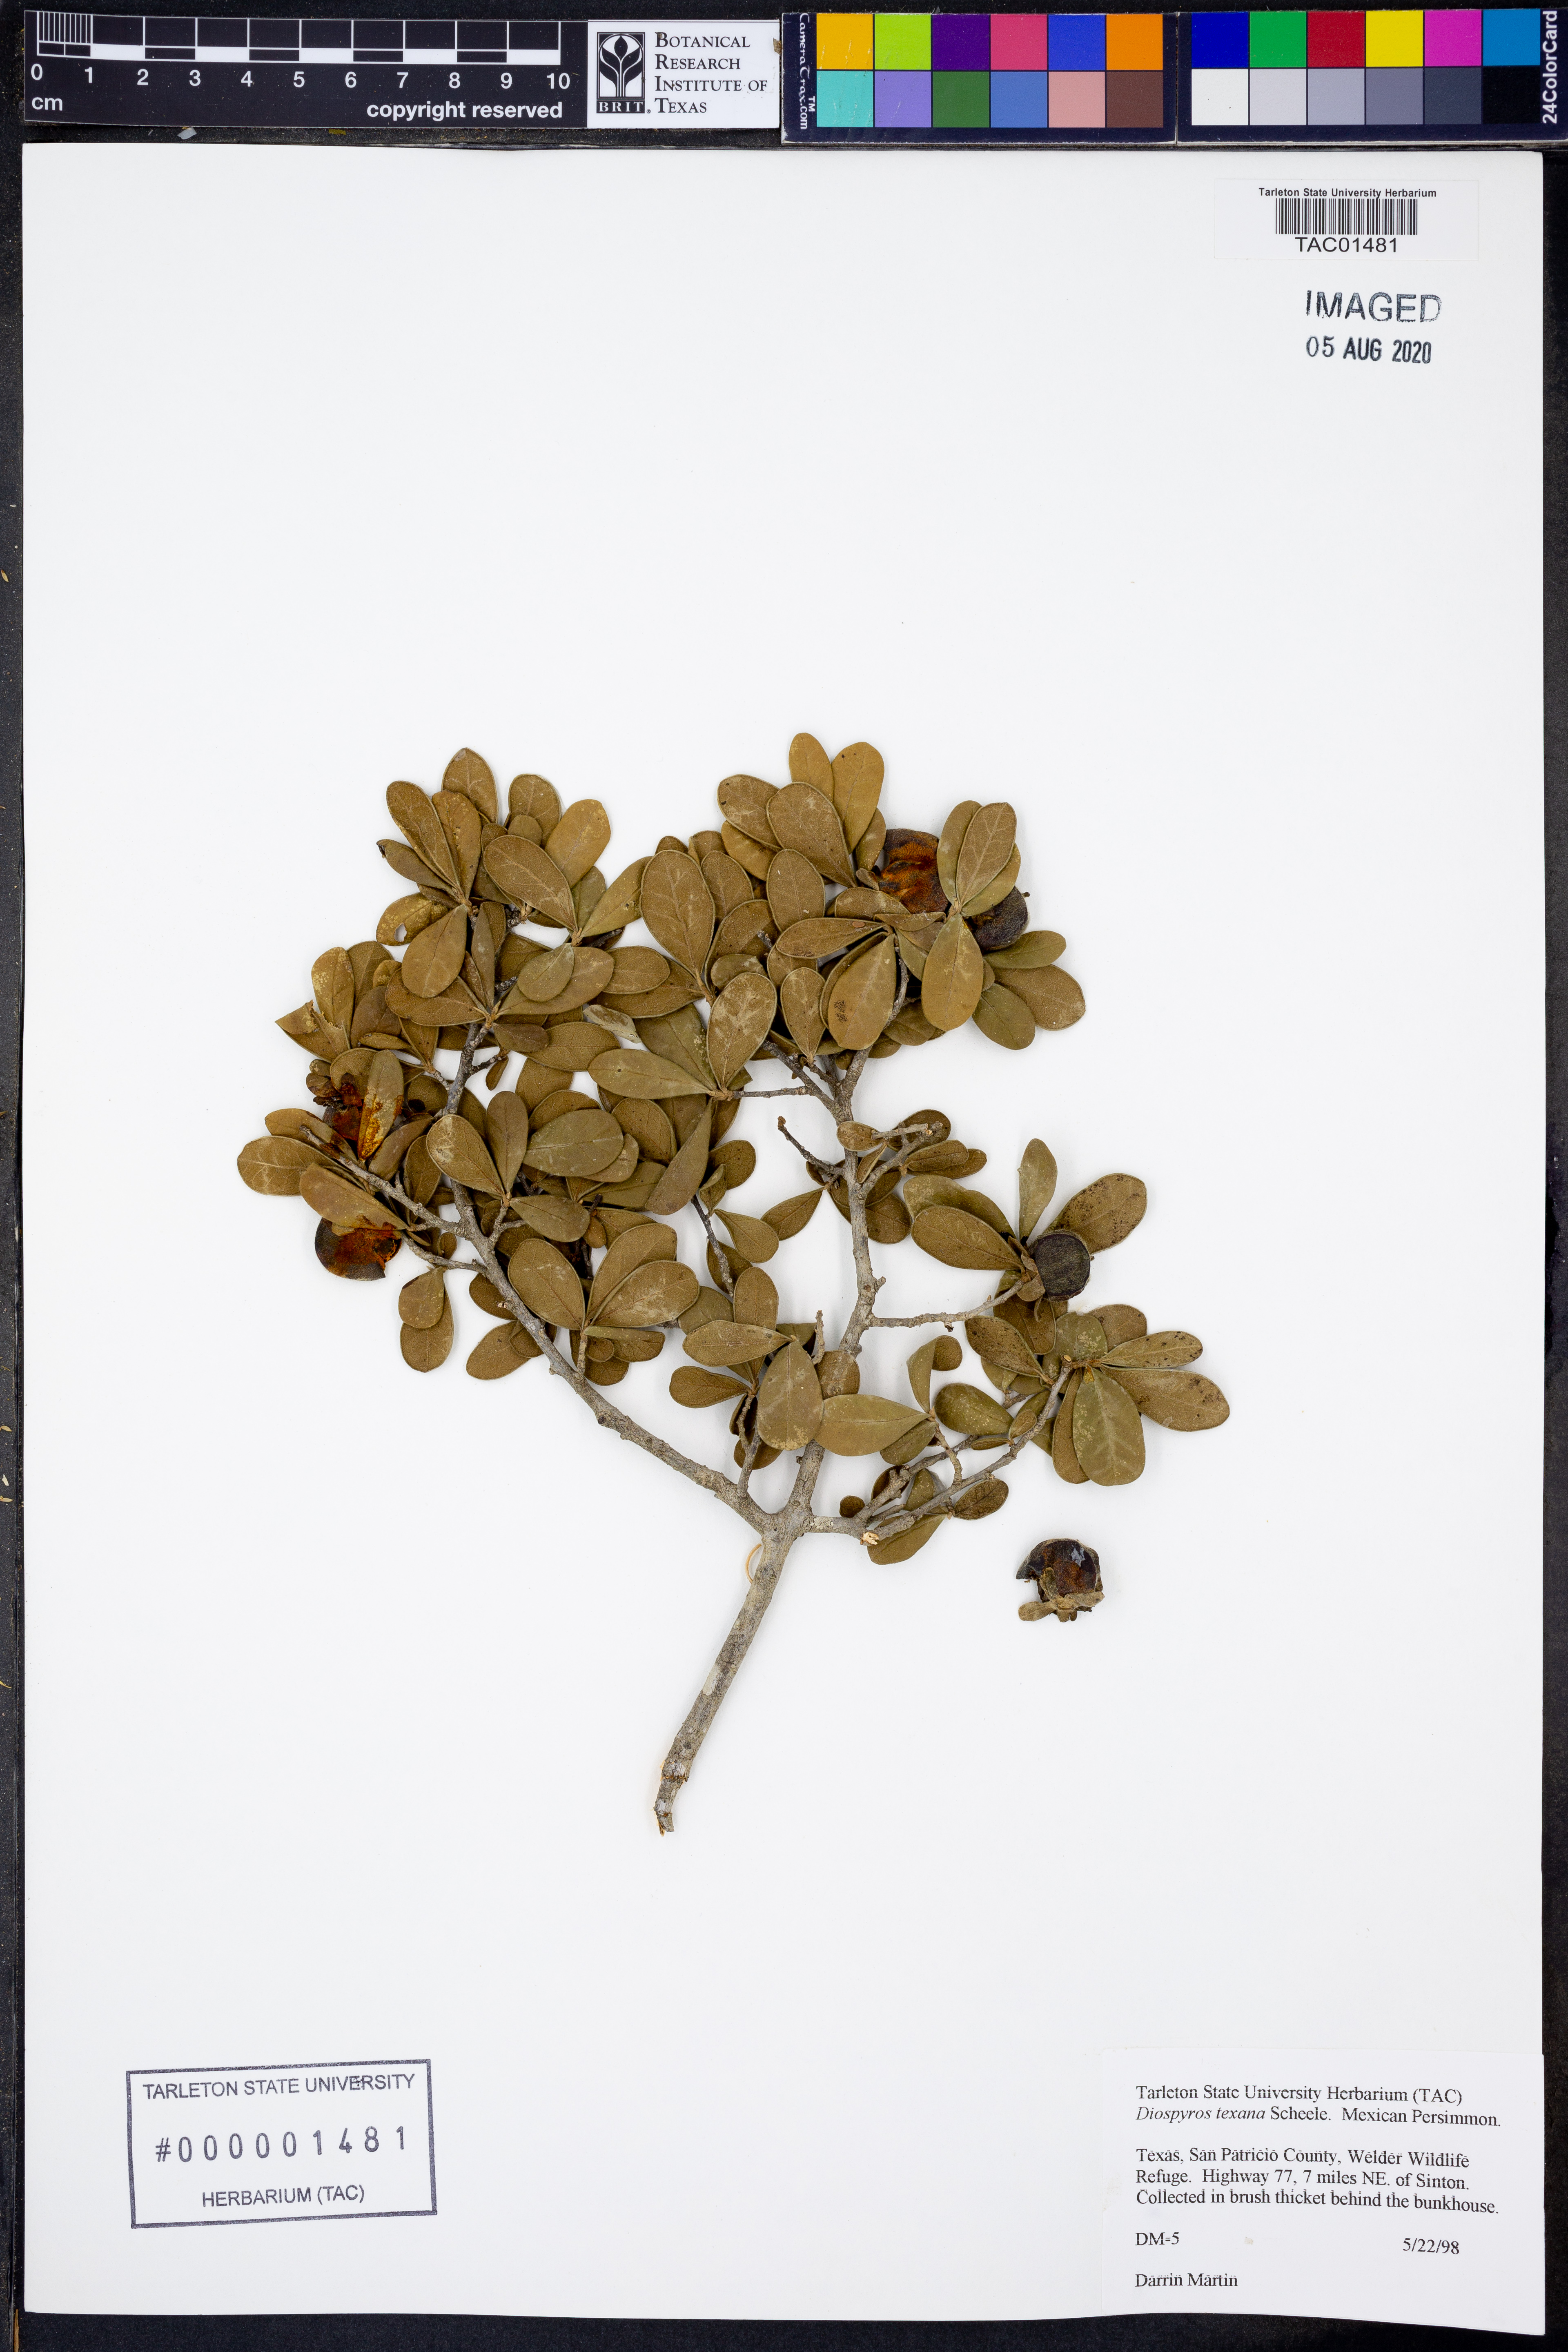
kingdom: Plantae
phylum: Tracheophyta
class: Magnoliopsida
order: Ericales
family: Ebenaceae
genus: Diospyros
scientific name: Diospyros texana
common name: Texas persimmon
